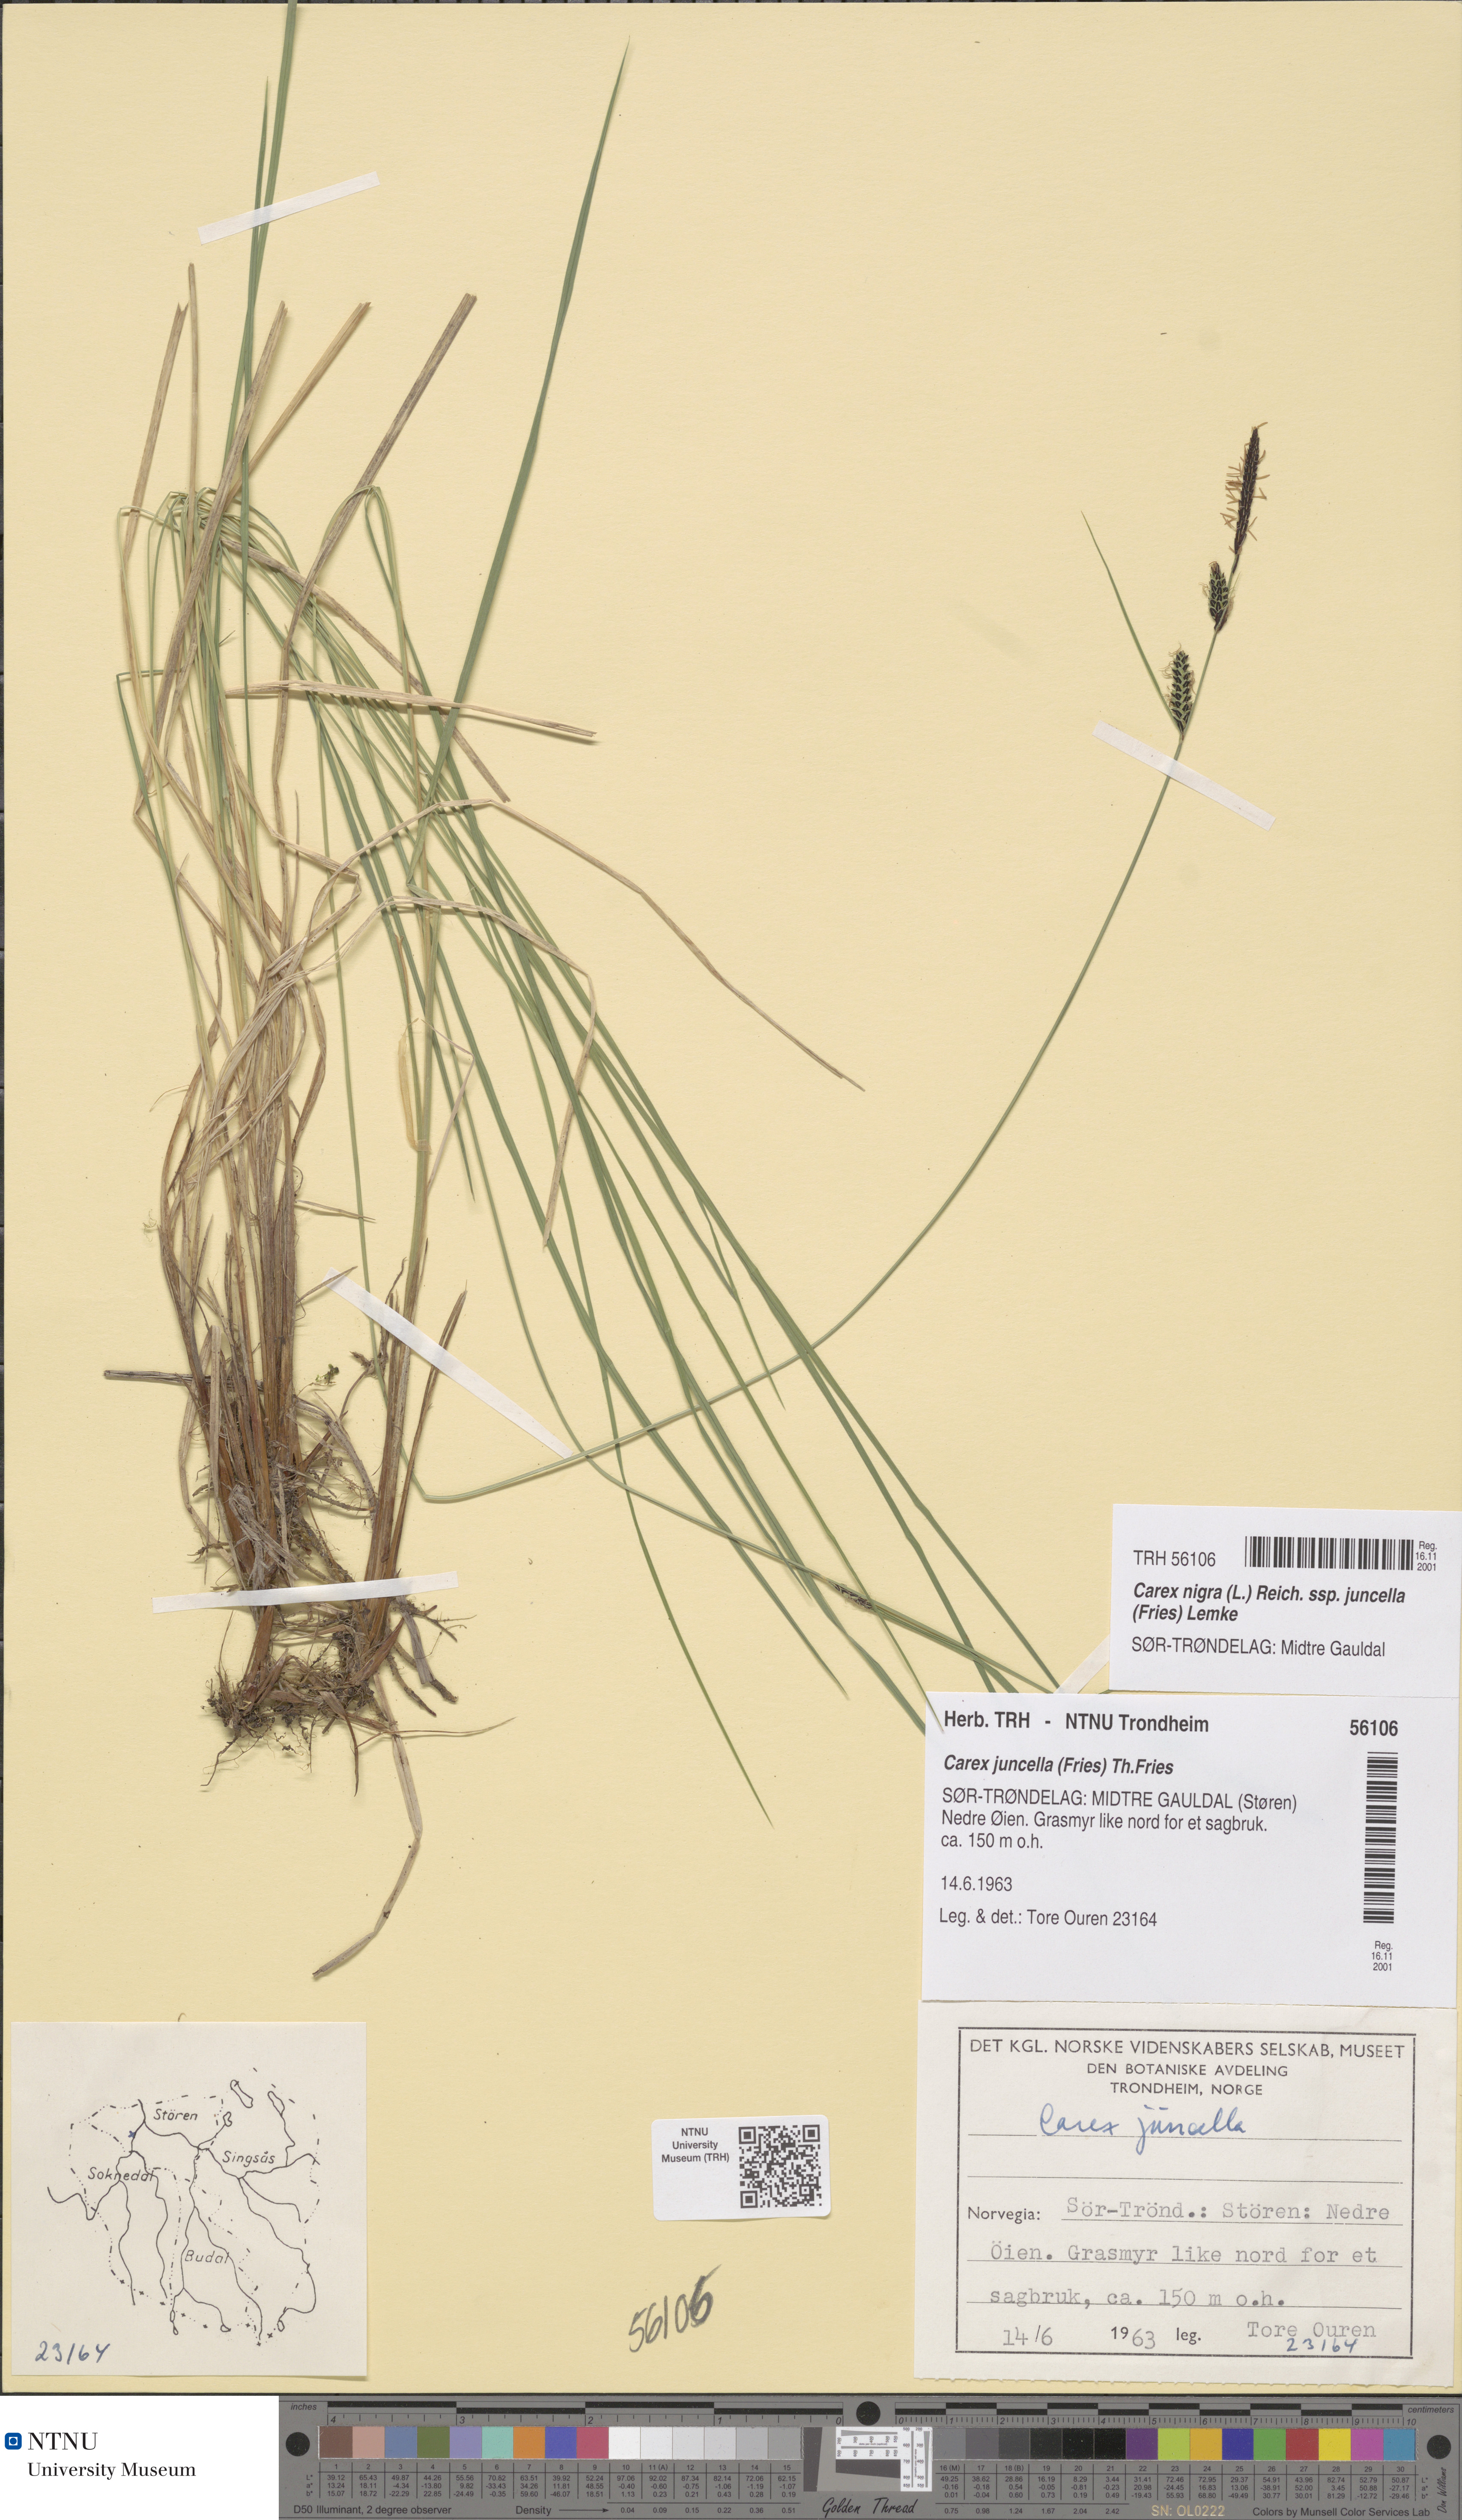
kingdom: Plantae
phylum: Tracheophyta
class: Liliopsida
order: Poales
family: Cyperaceae
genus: Carex
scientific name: Carex nigra
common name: Common sedge
